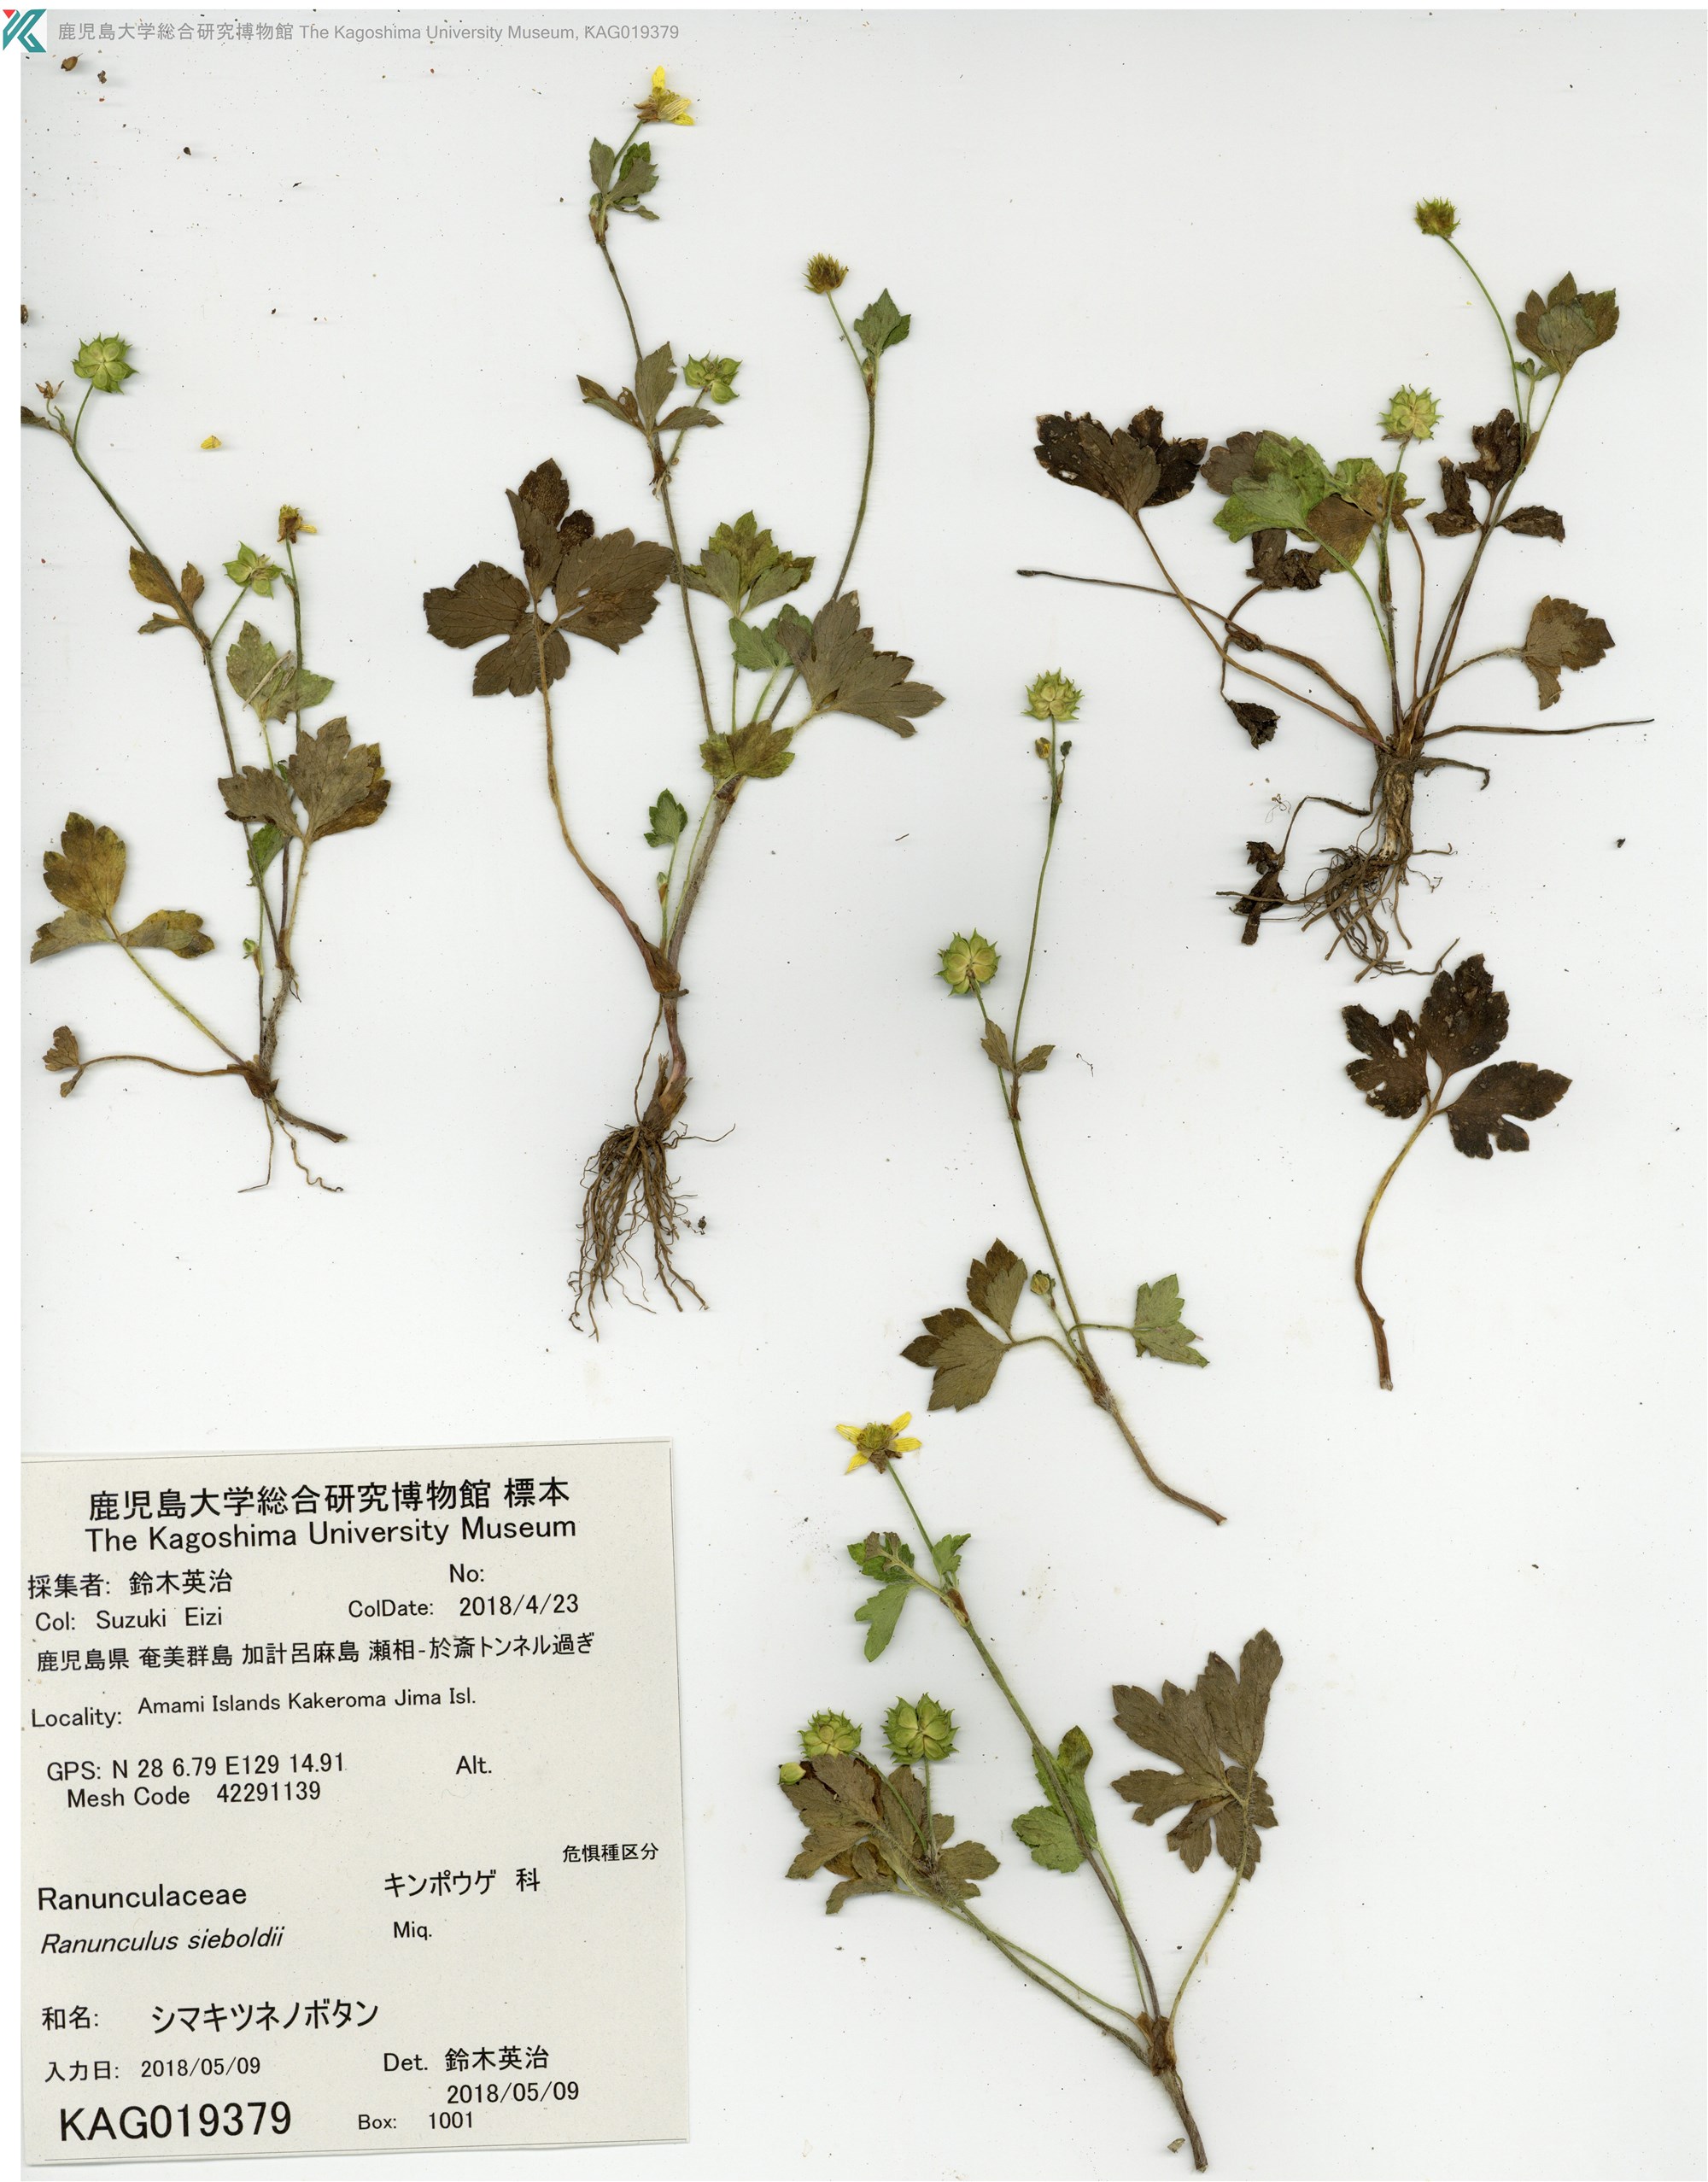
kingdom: Plantae
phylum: Tracheophyta
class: Magnoliopsida
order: Ranunculales
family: Ranunculaceae
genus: Ranunculus
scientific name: Ranunculus sieboldii
